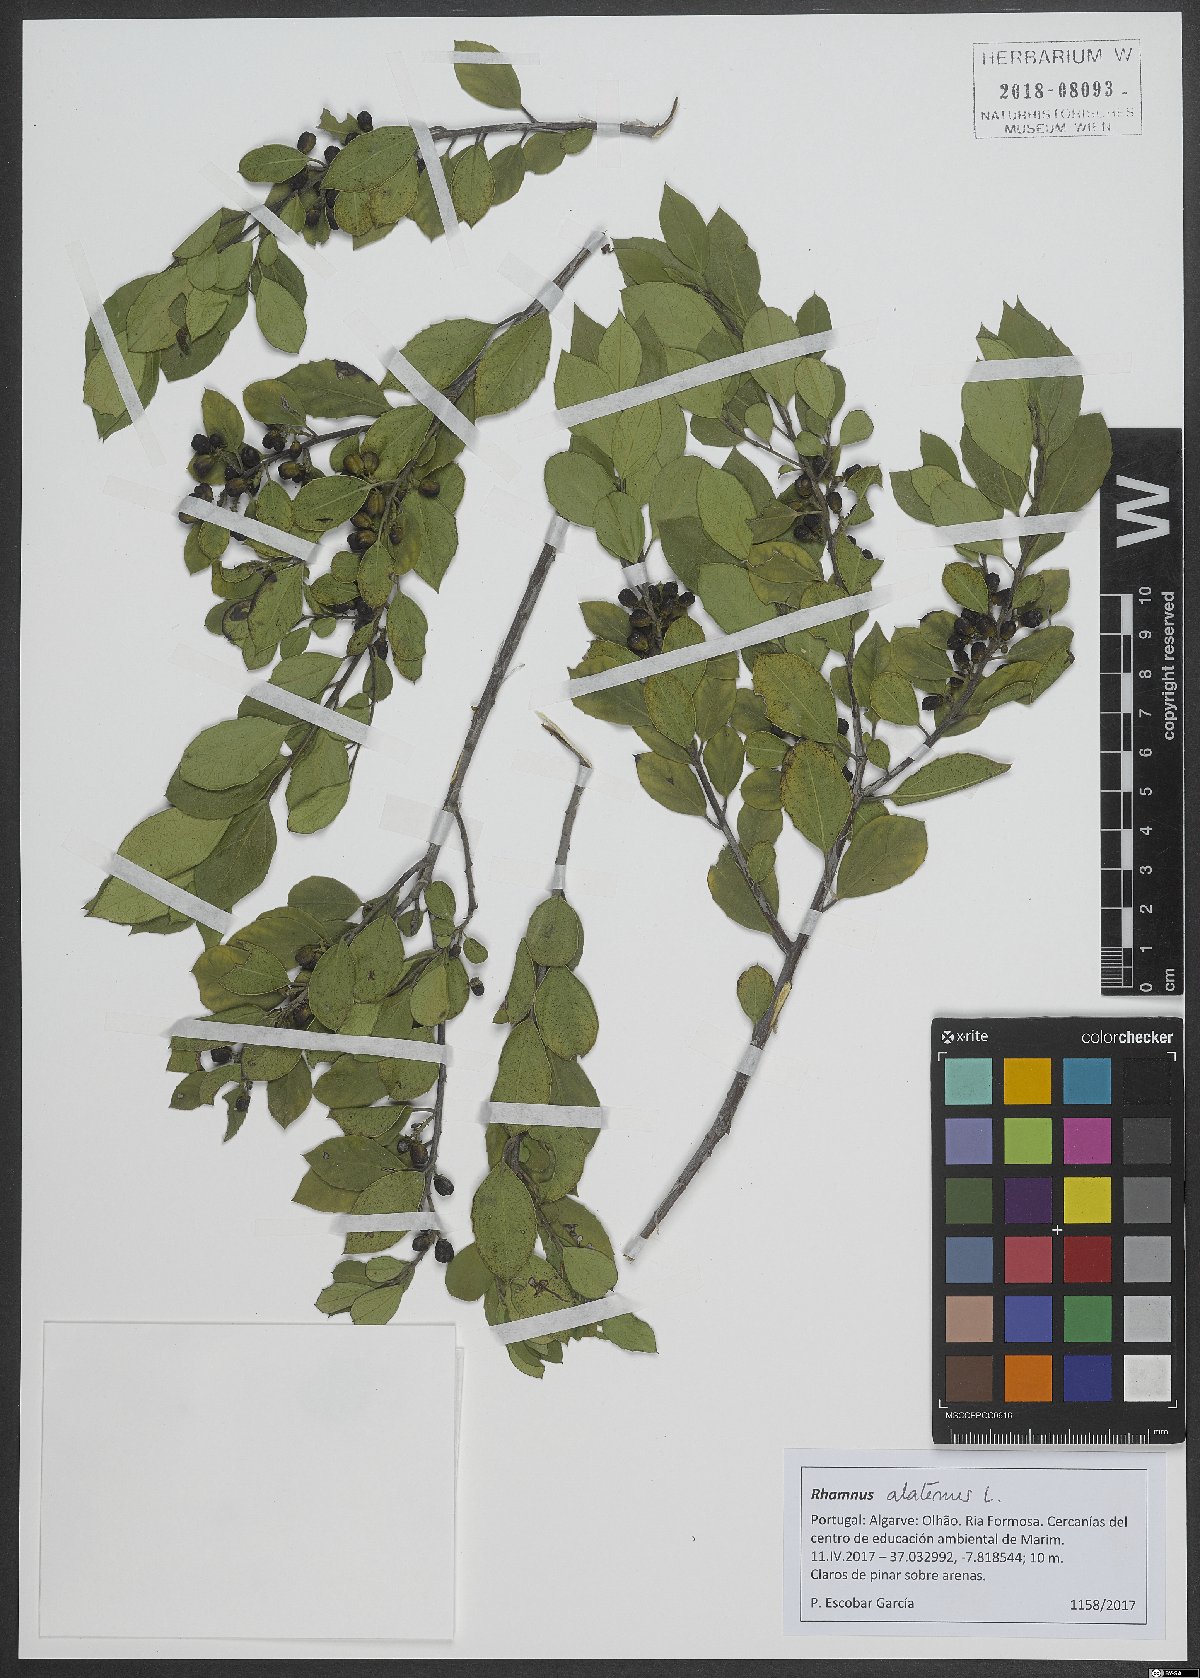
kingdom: Plantae
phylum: Tracheophyta
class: Magnoliopsida
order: Rosales
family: Rhamnaceae
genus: Rhamnus
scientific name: Rhamnus alaternus
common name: Mediterranean buckthorn
